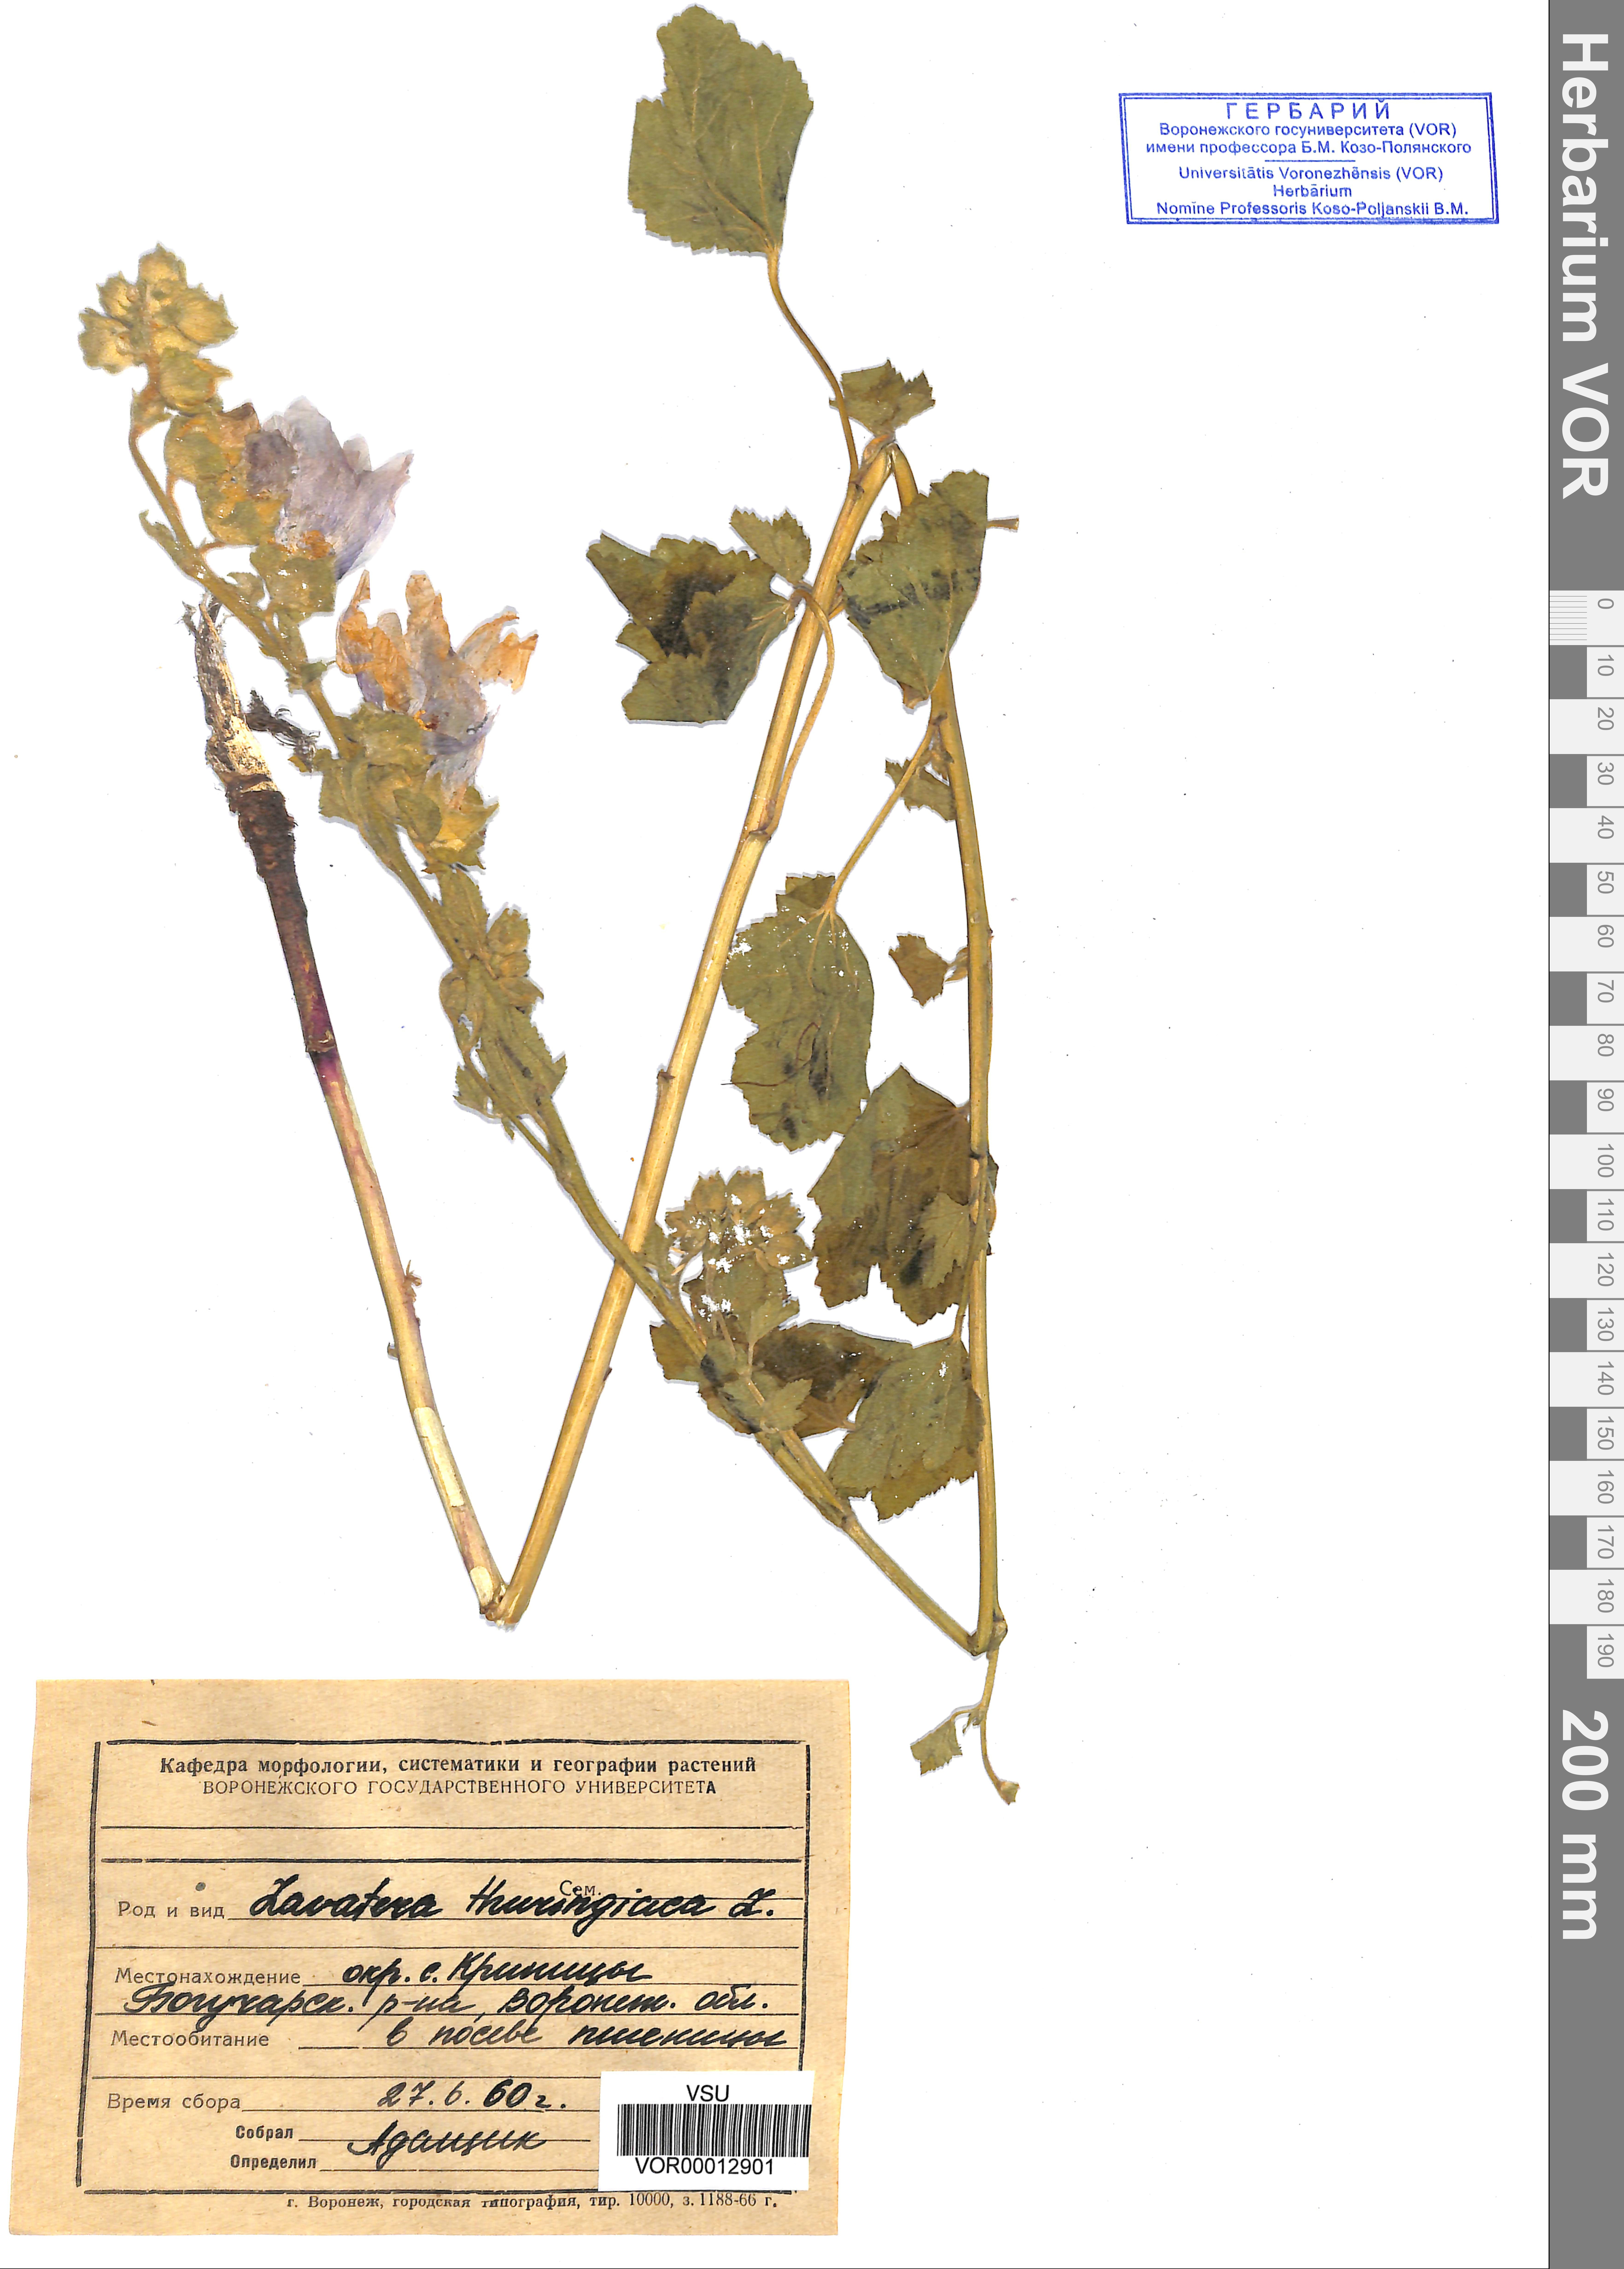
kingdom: Plantae
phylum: Tracheophyta
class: Magnoliopsida
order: Malvales
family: Malvaceae
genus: Malva
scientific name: Malva thuringiaca
